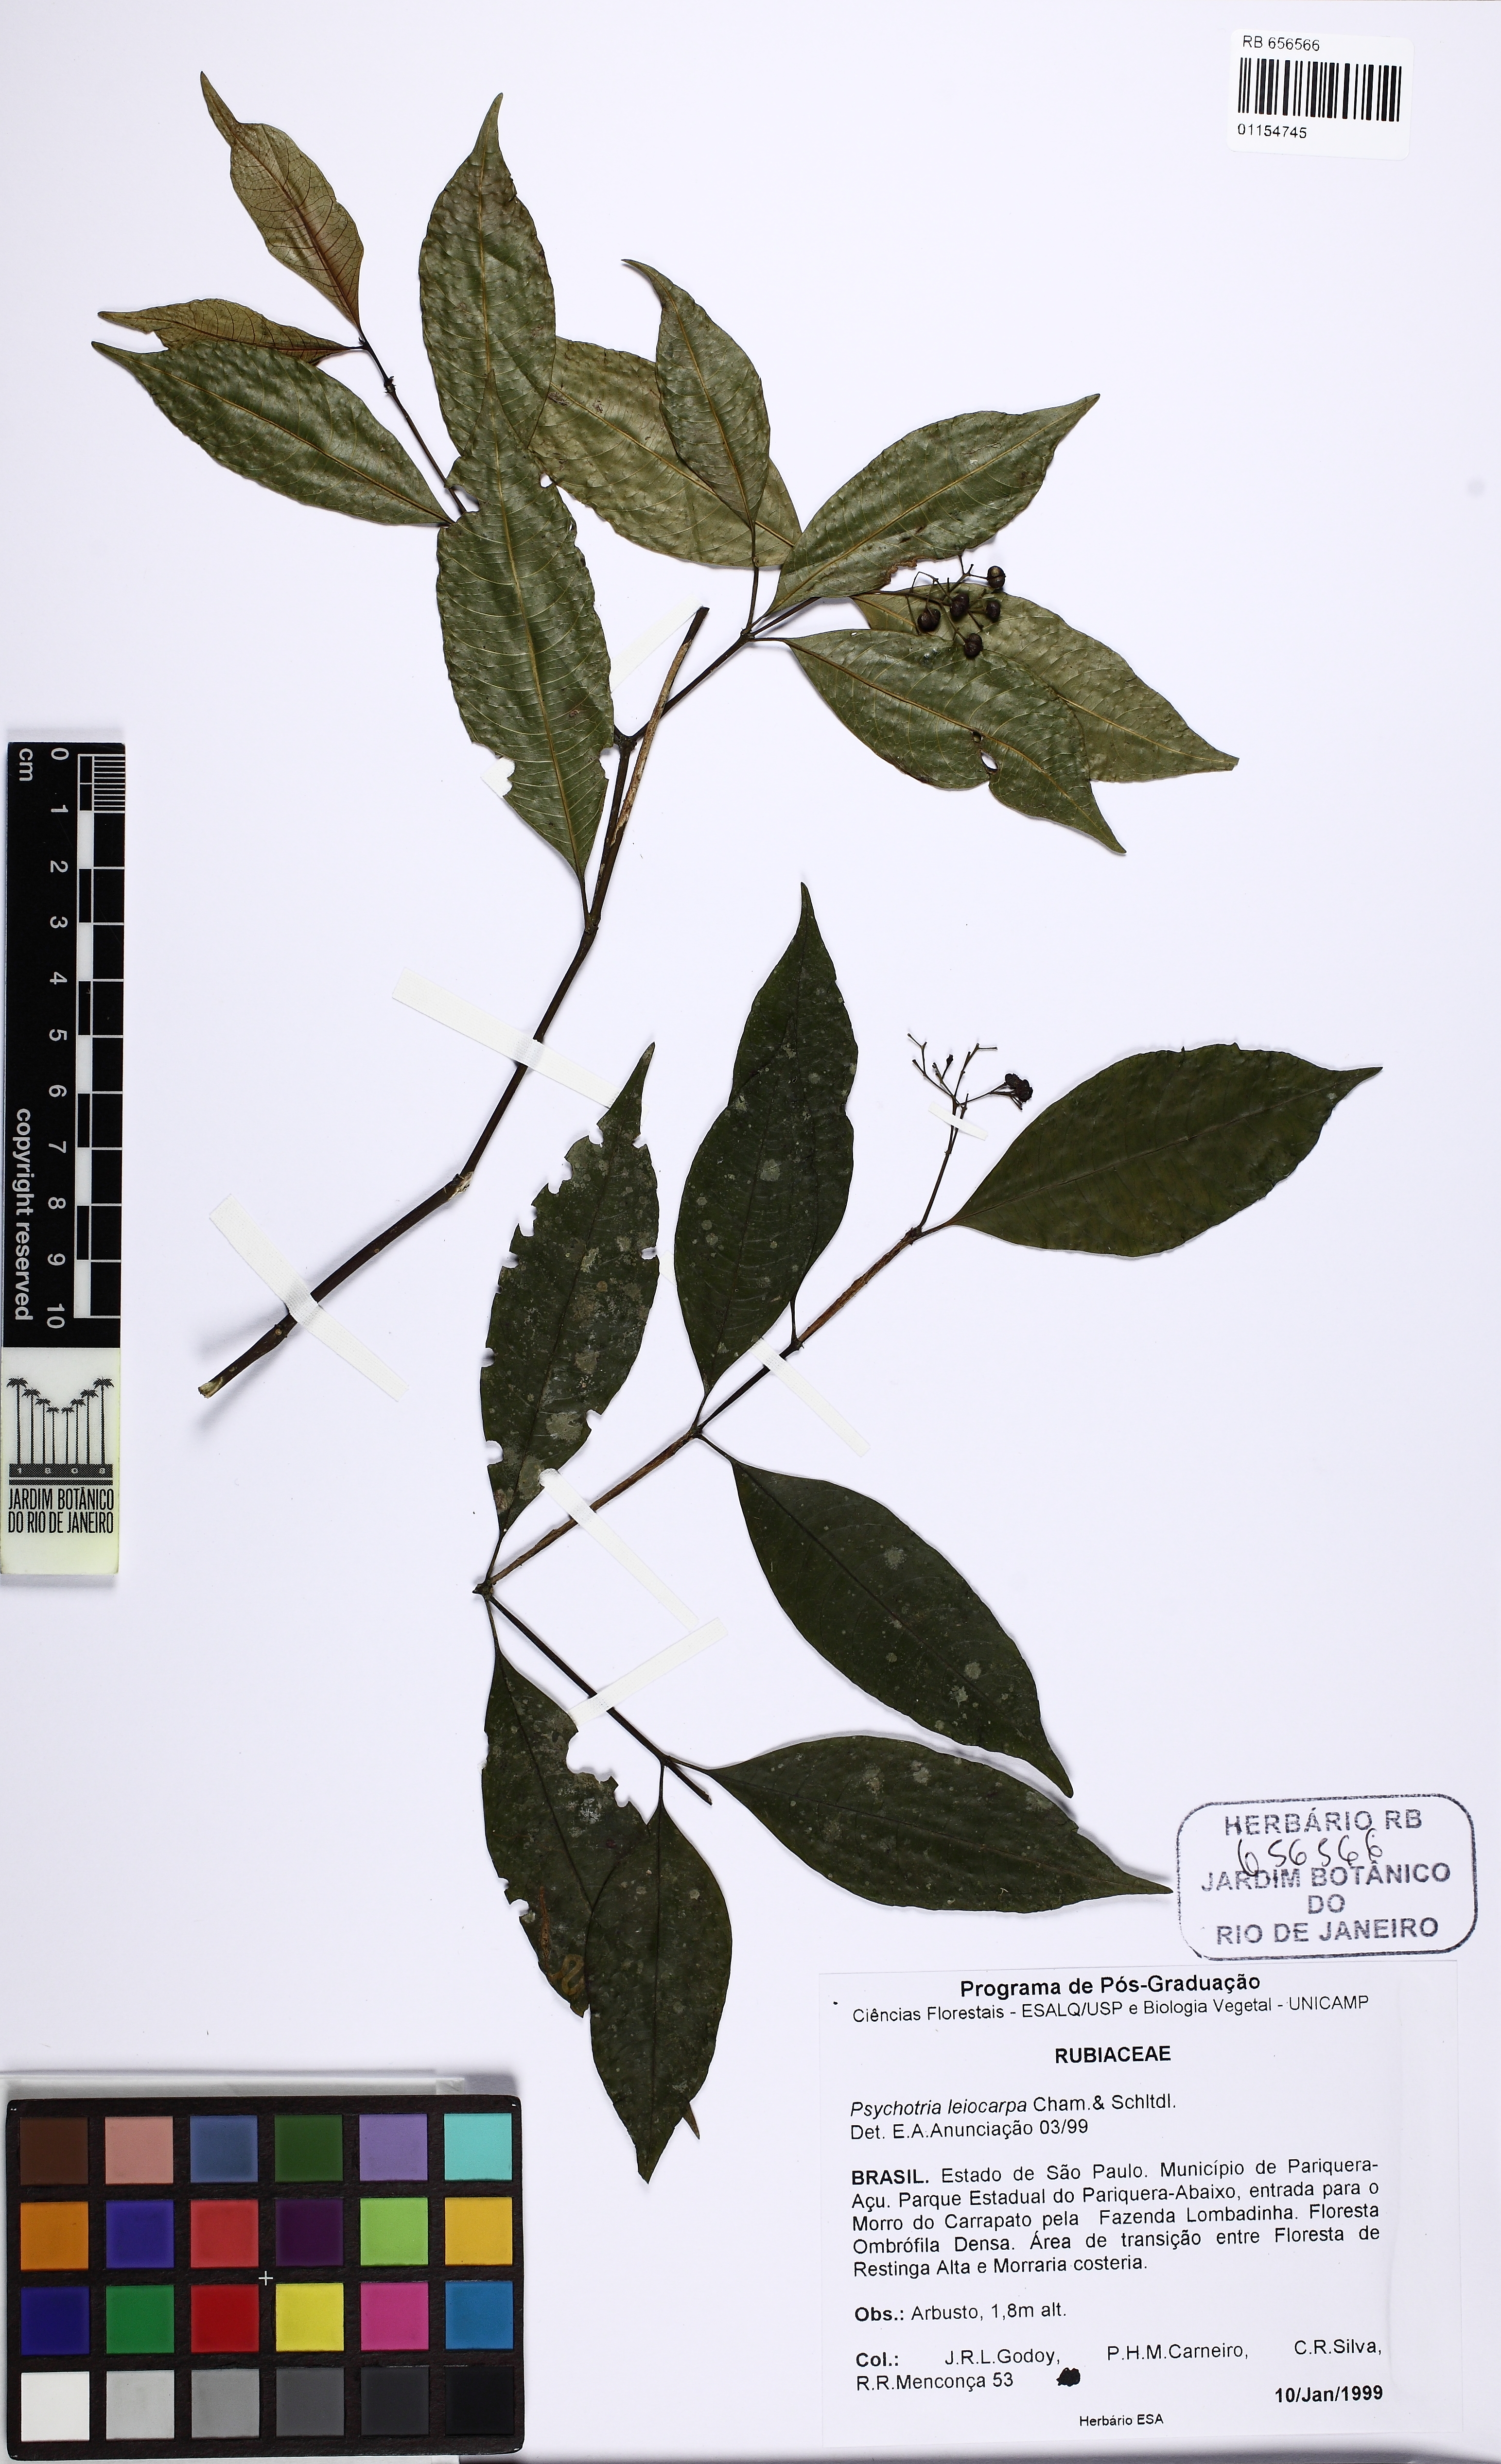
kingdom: Plantae
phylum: Tracheophyta
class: Magnoliopsida
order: Gentianales
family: Rubiaceae
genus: Psychotria
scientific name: Psychotria leiocarpa
